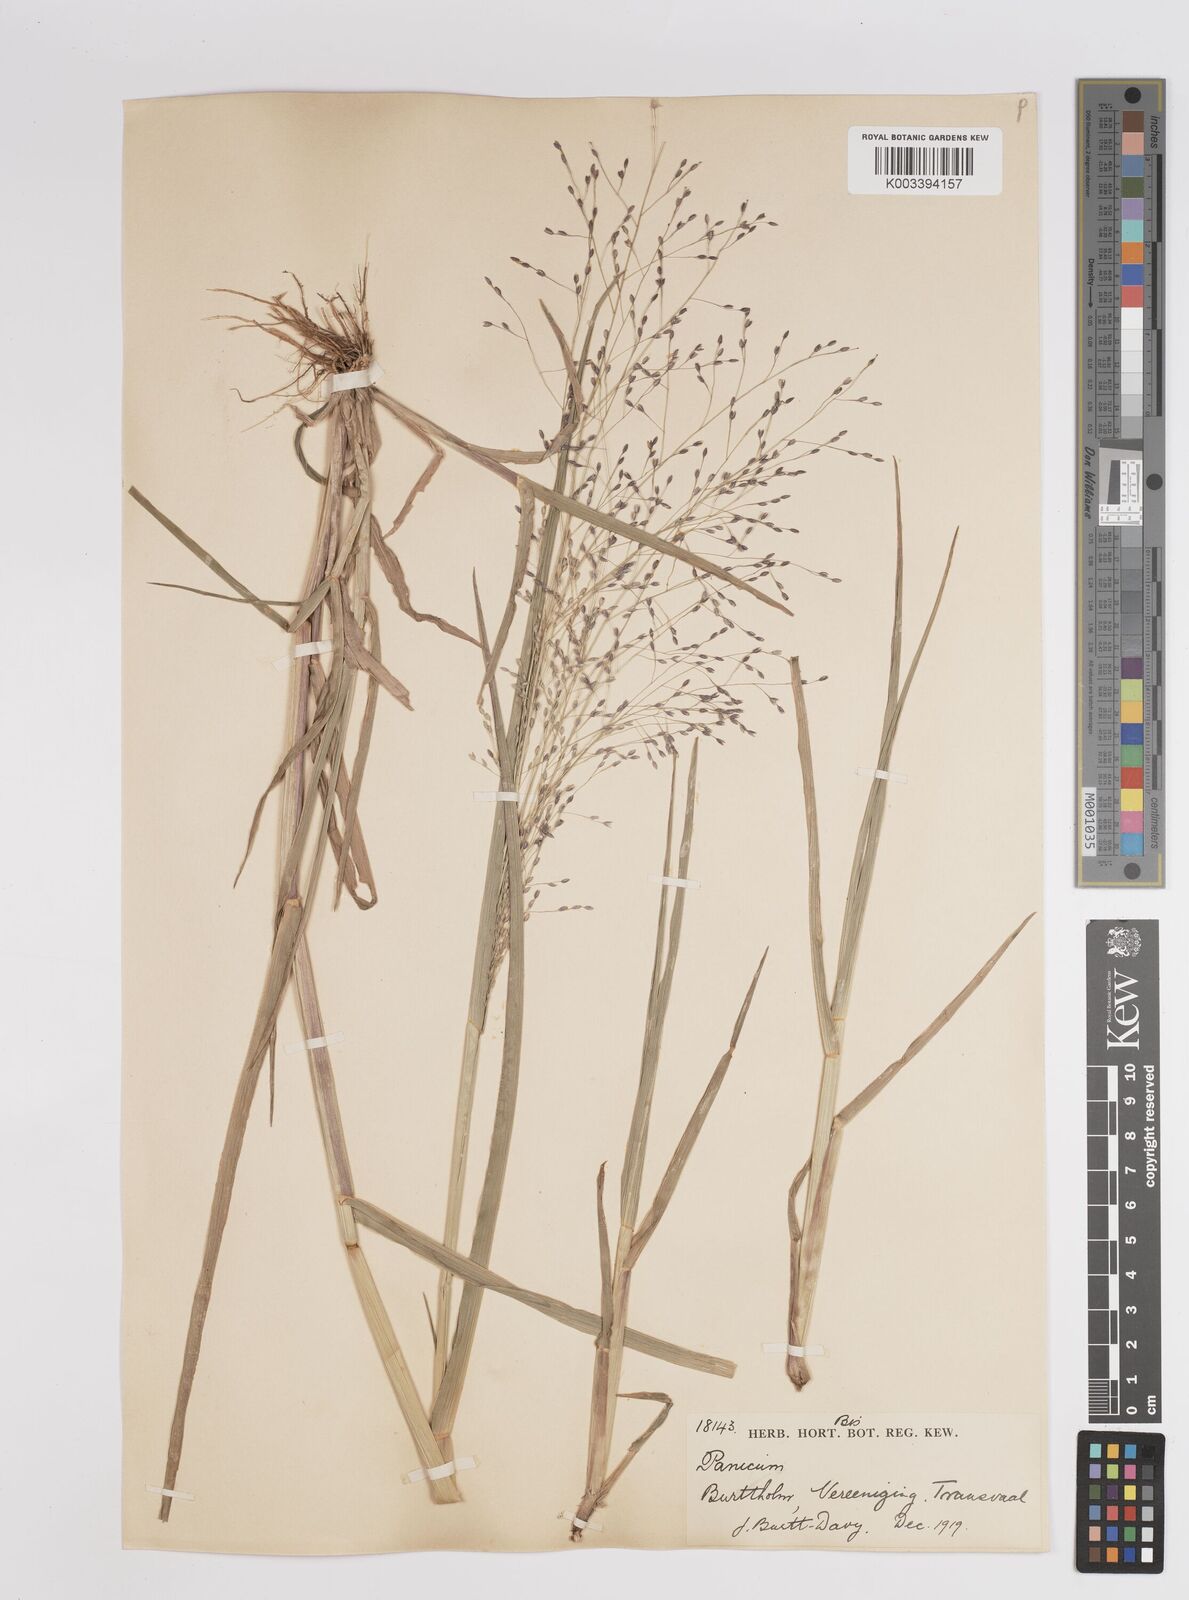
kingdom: Plantae
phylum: Tracheophyta
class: Liliopsida
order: Poales
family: Poaceae
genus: Panicum
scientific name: Panicum schinzii
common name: Sweet grass
